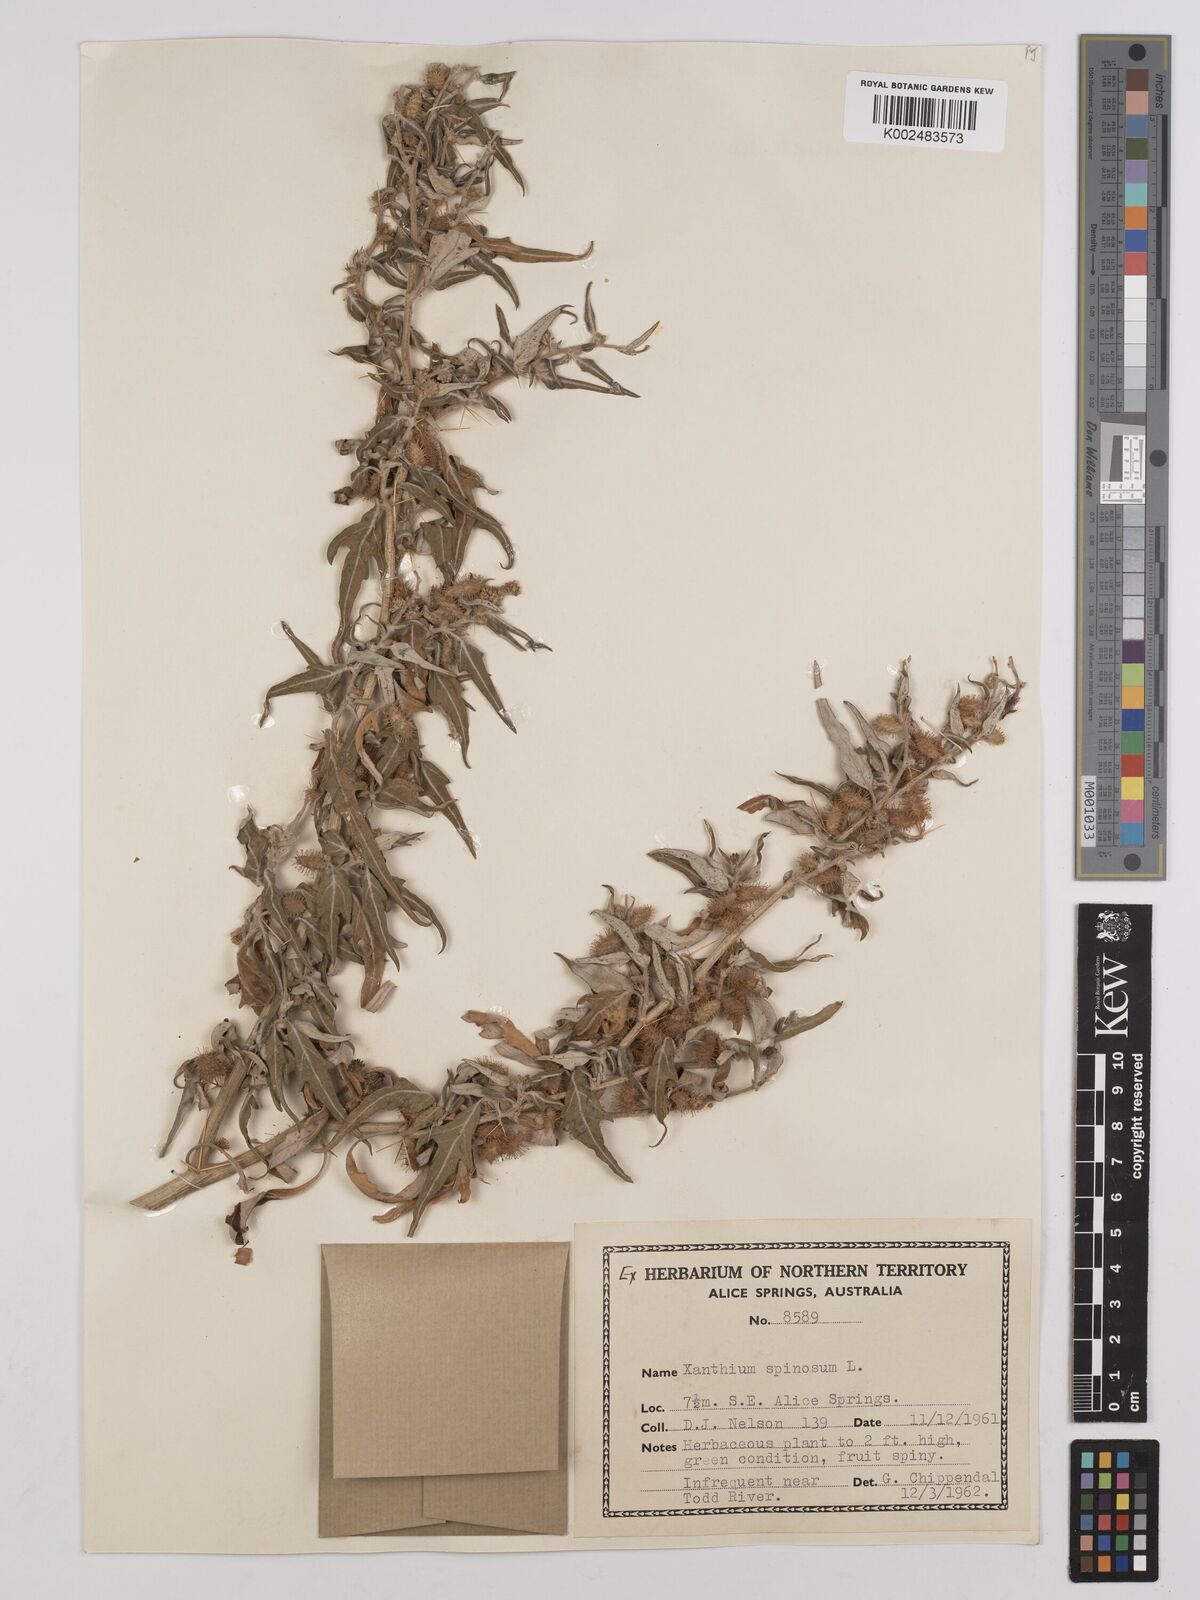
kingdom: Plantae
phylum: Tracheophyta
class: Magnoliopsida
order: Asterales
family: Asteraceae
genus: Xanthium
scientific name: Xanthium spinosum
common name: Spiny cocklebur
